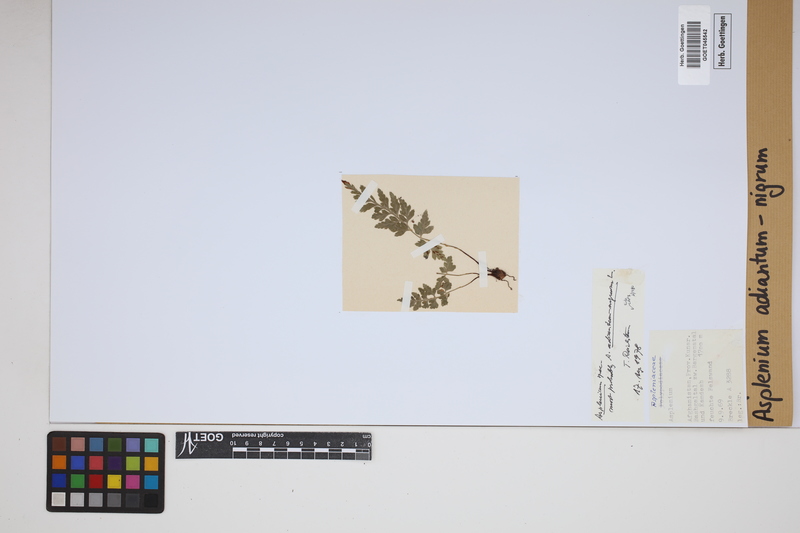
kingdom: Plantae
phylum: Tracheophyta
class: Polypodiopsida
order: Polypodiales
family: Aspleniaceae
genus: Asplenium
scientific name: Asplenium adiantum-nigrum
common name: Black spleenwort
